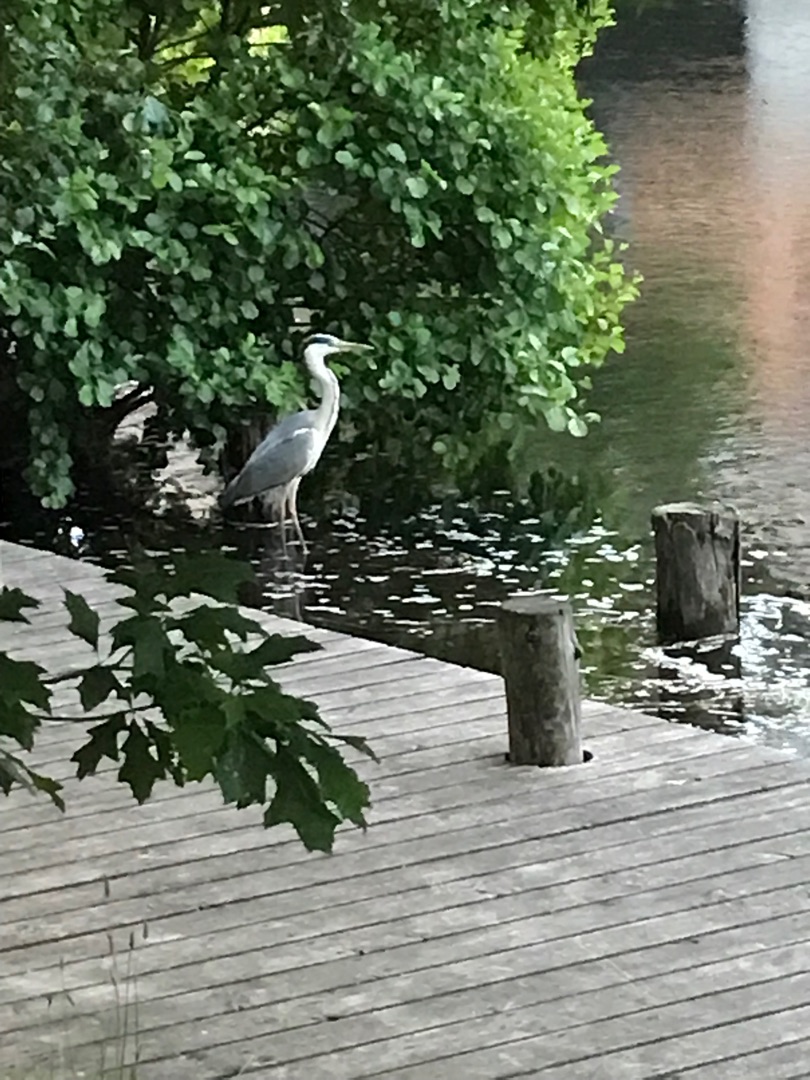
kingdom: Animalia
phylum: Chordata
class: Aves
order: Pelecaniformes
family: Ardeidae
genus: Ardea
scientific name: Ardea cinerea
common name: Fiskehejre
